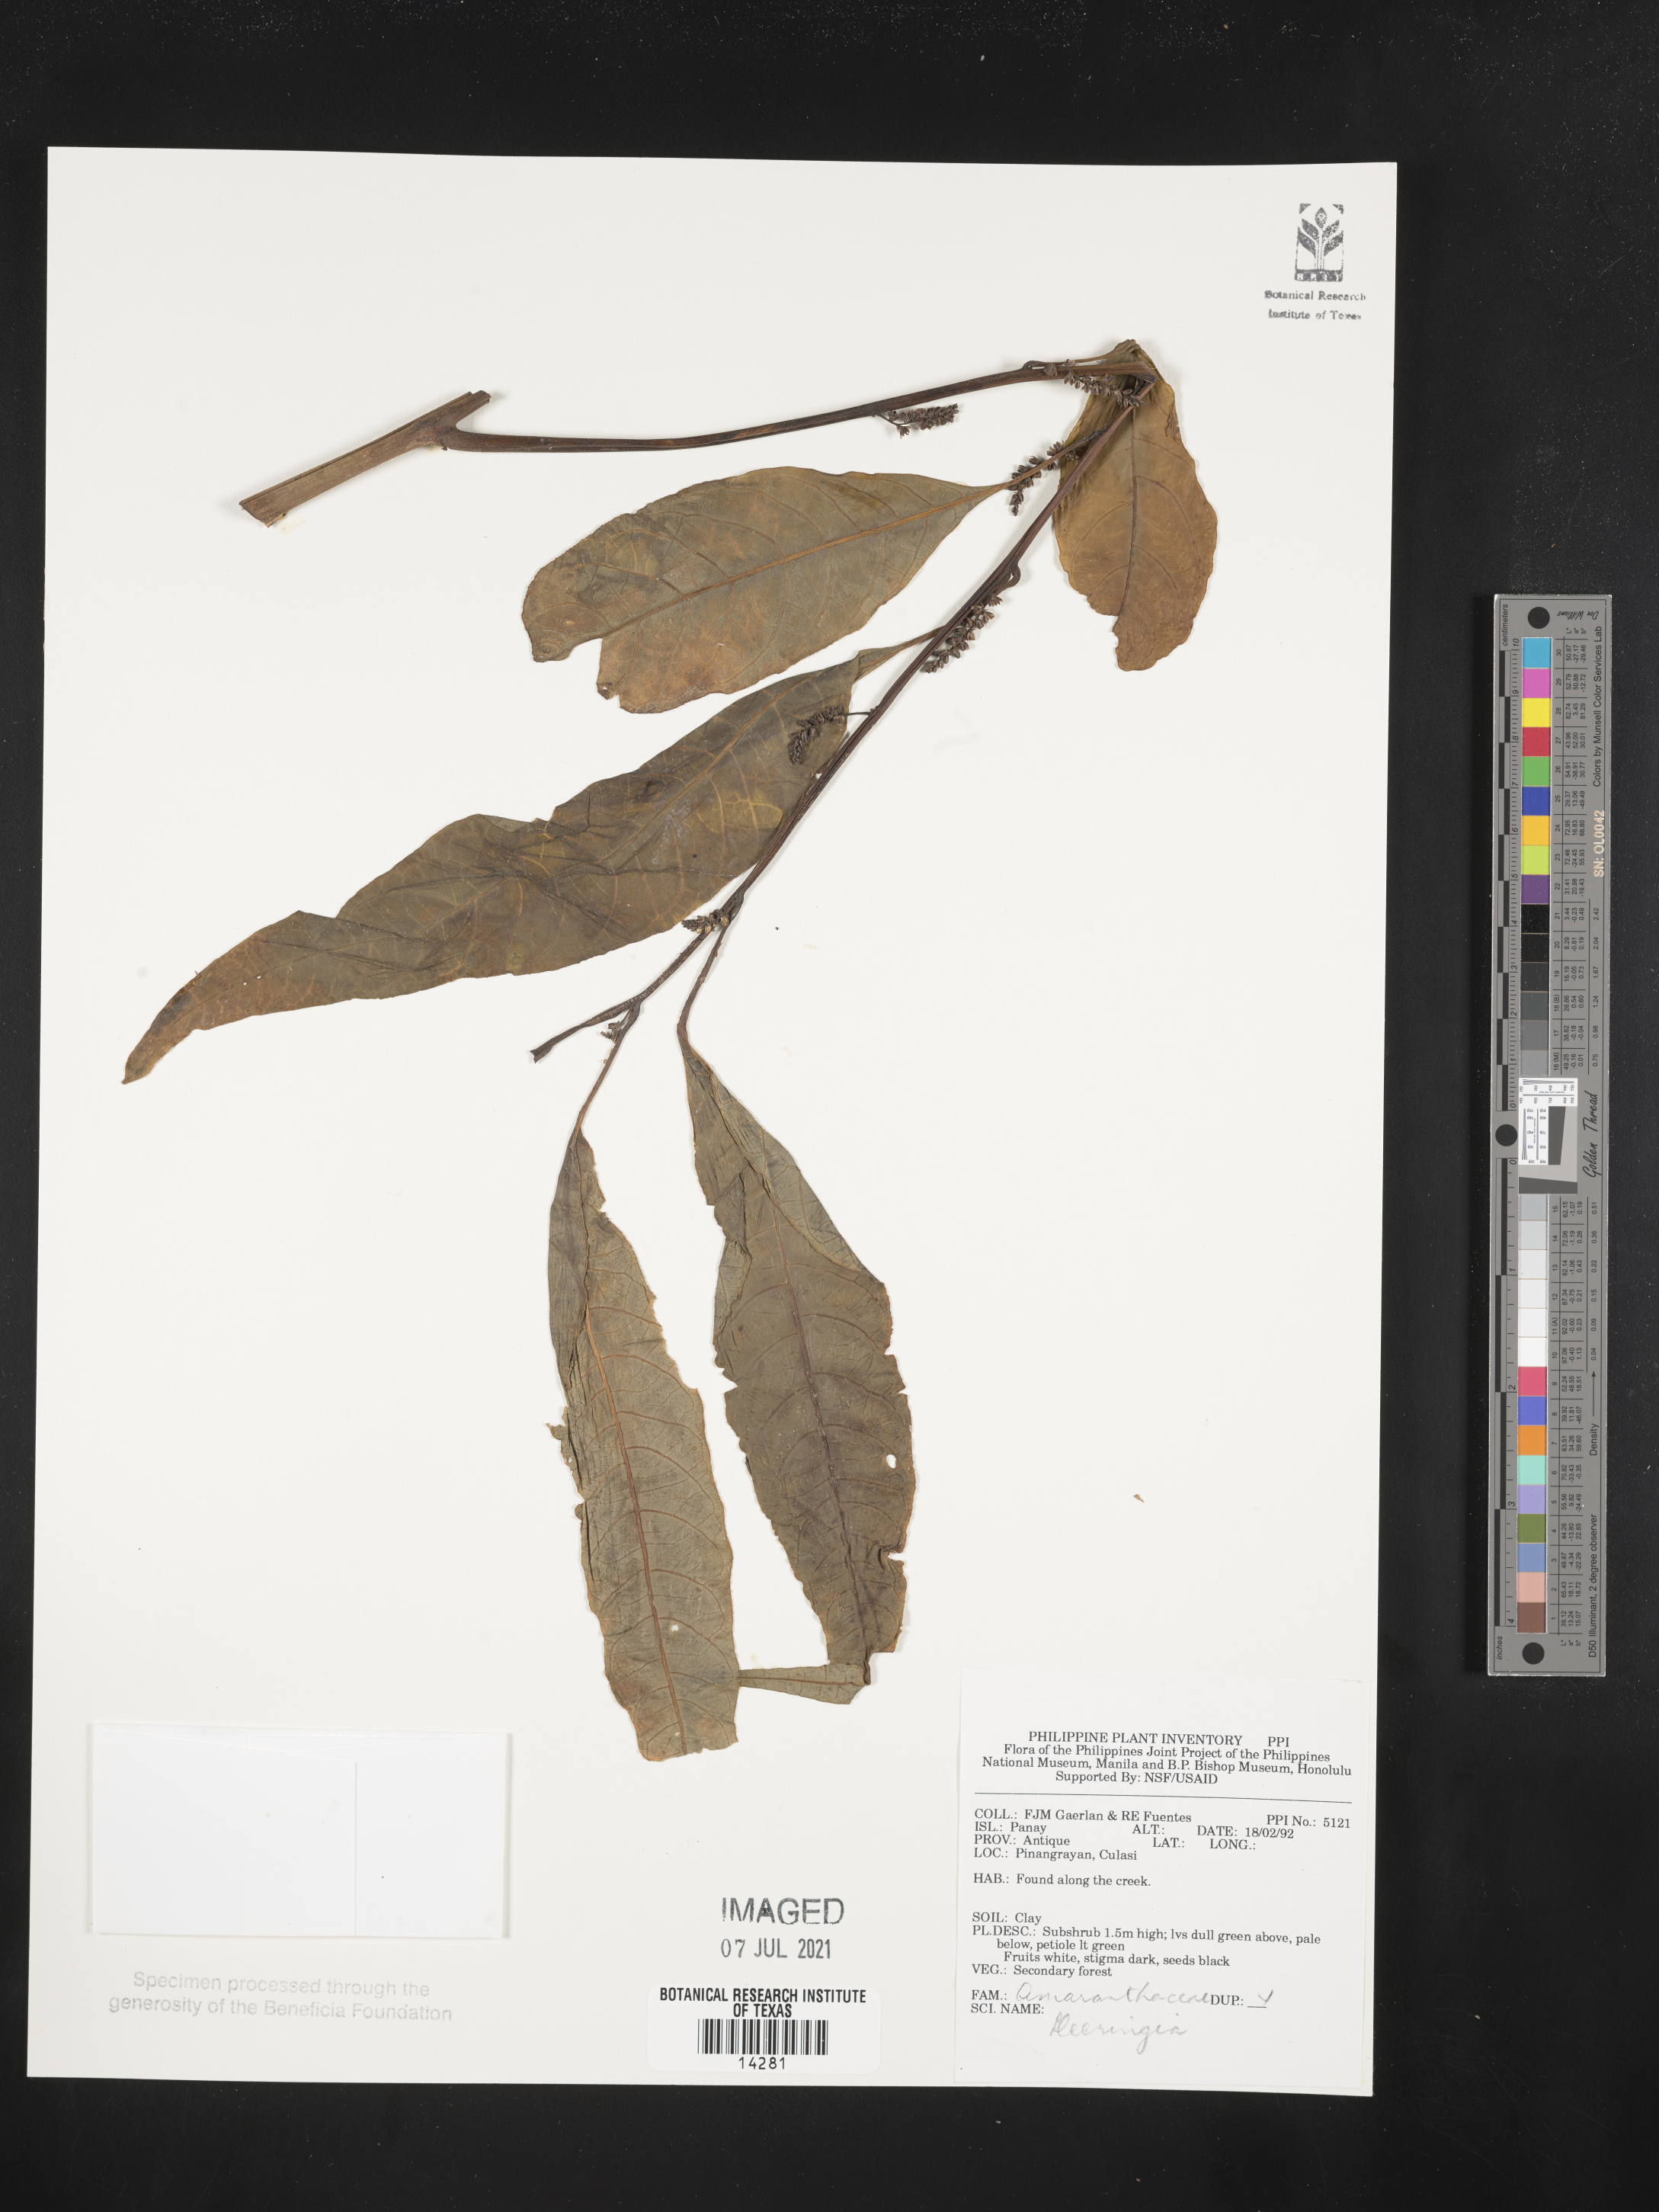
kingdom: Plantae
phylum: Tracheophyta
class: Magnoliopsida
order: Caryophyllales
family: Amaranthaceae
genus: Deeringia
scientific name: Deeringia
